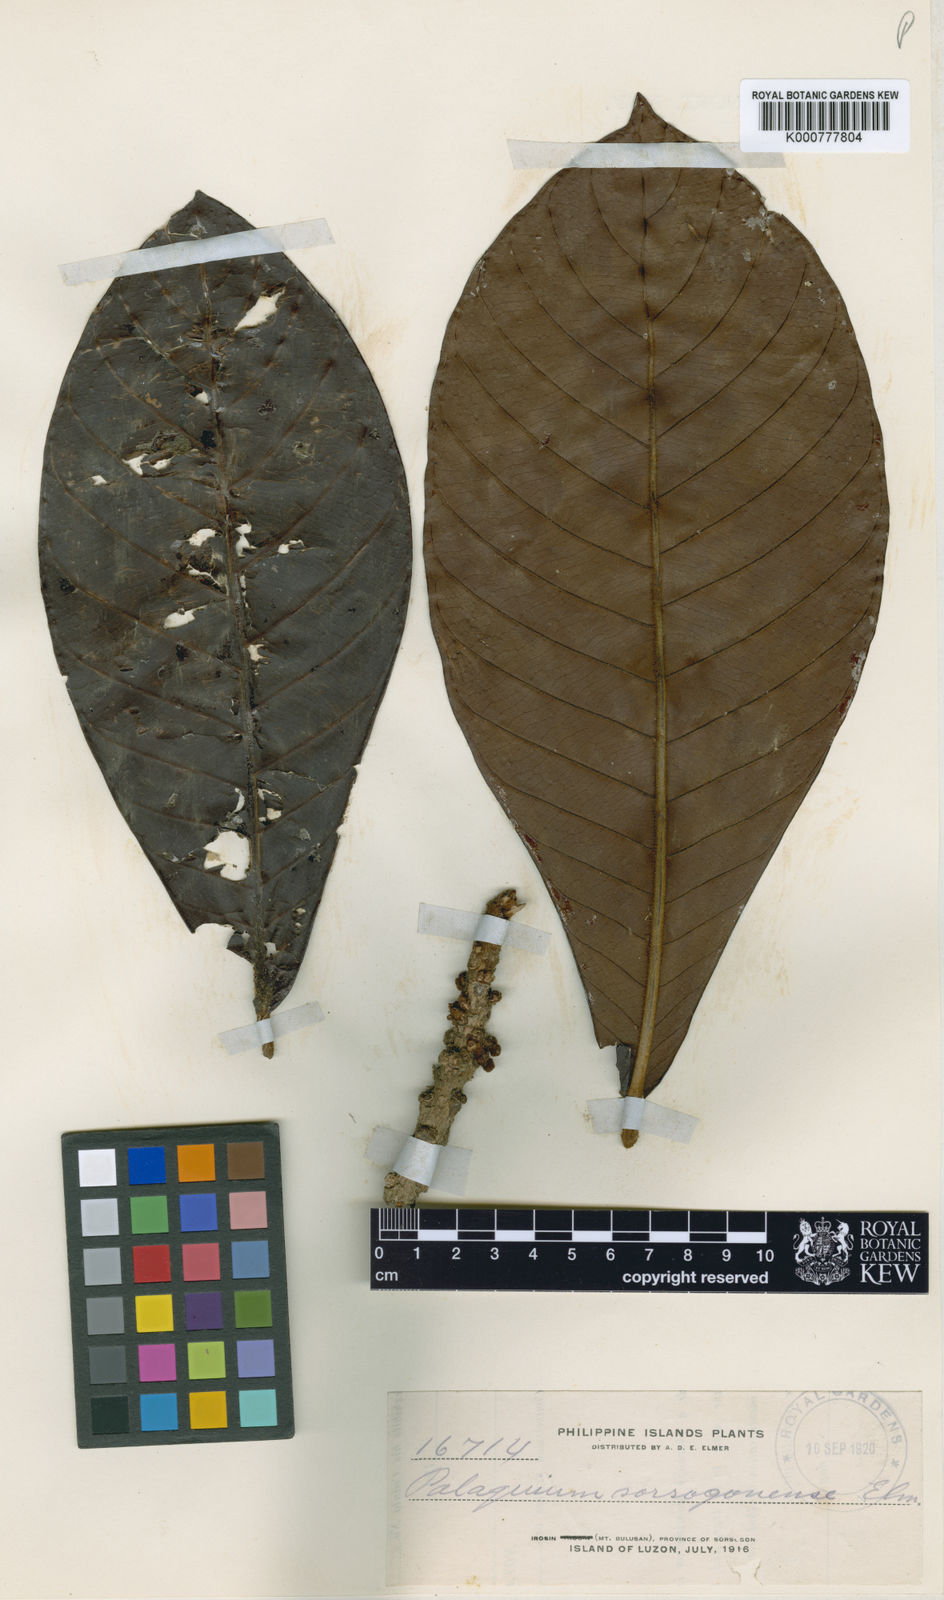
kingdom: Plantae
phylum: Tracheophyta
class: Magnoliopsida
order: Ericales
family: Sapotaceae
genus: Palaquium
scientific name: Palaquium sorsogonense
